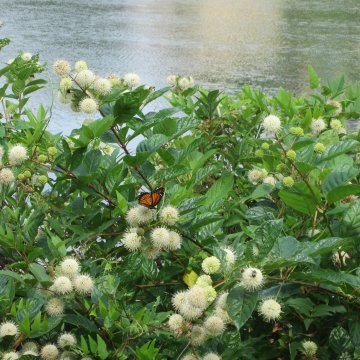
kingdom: Animalia
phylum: Arthropoda
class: Insecta
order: Lepidoptera
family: Nymphalidae
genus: Limenitis
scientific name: Limenitis archippus
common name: Viceroy
